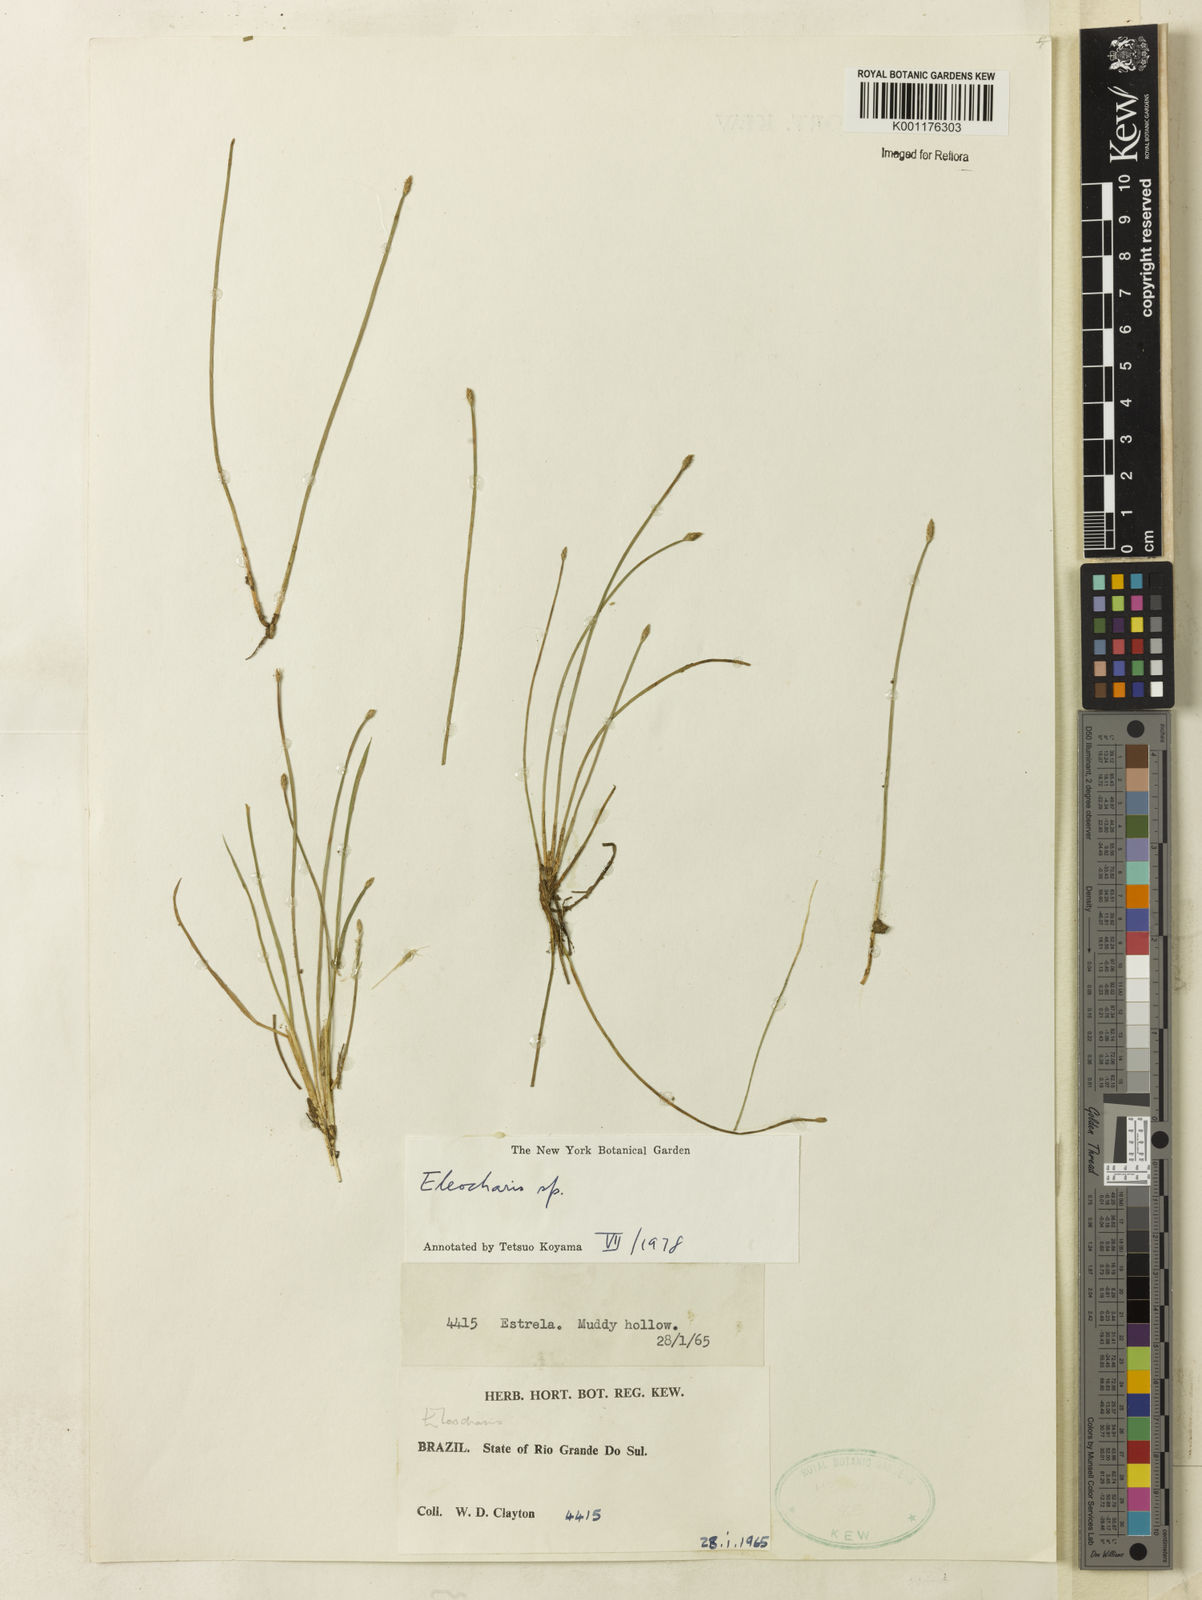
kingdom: Plantae
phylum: Tracheophyta
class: Liliopsida
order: Poales
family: Cyperaceae
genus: Eleocharis
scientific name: Eleocharis
